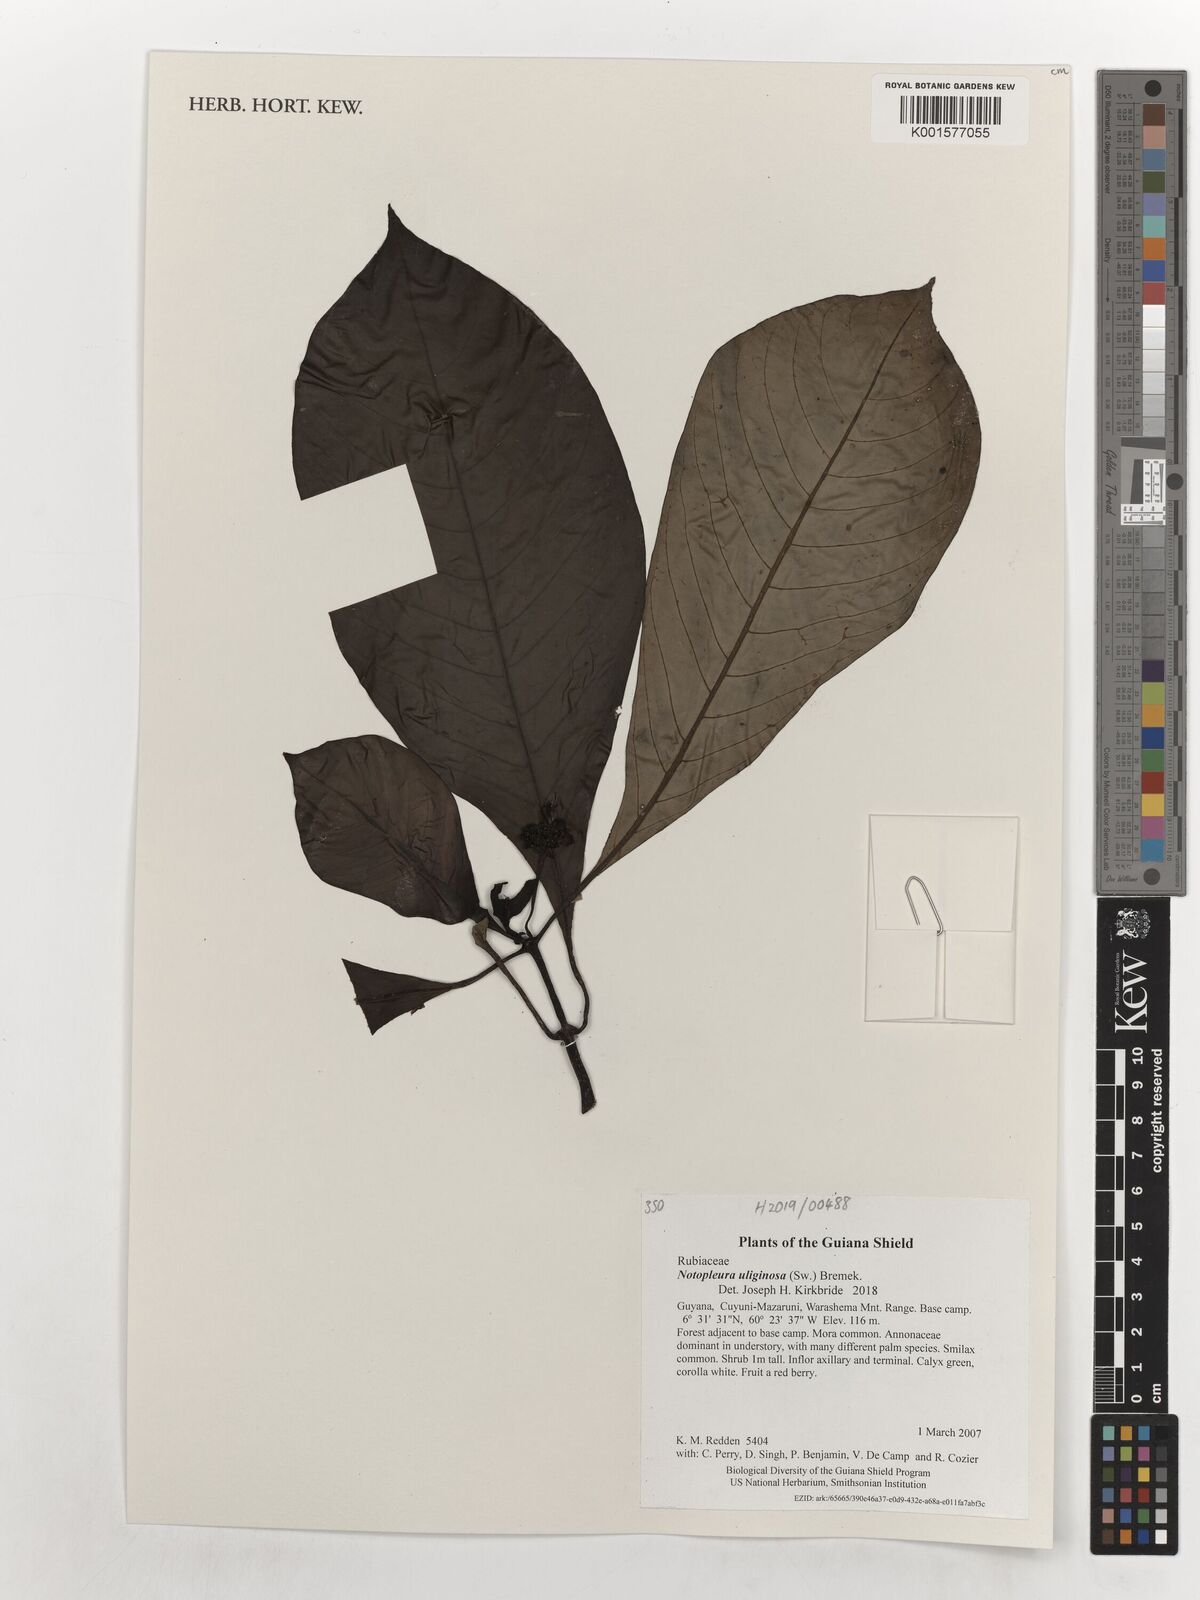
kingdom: Plantae
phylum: Tracheophyta
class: Magnoliopsida
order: Gentianales
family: Rubiaceae
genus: Notopleura
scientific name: Notopleura uliginosa
